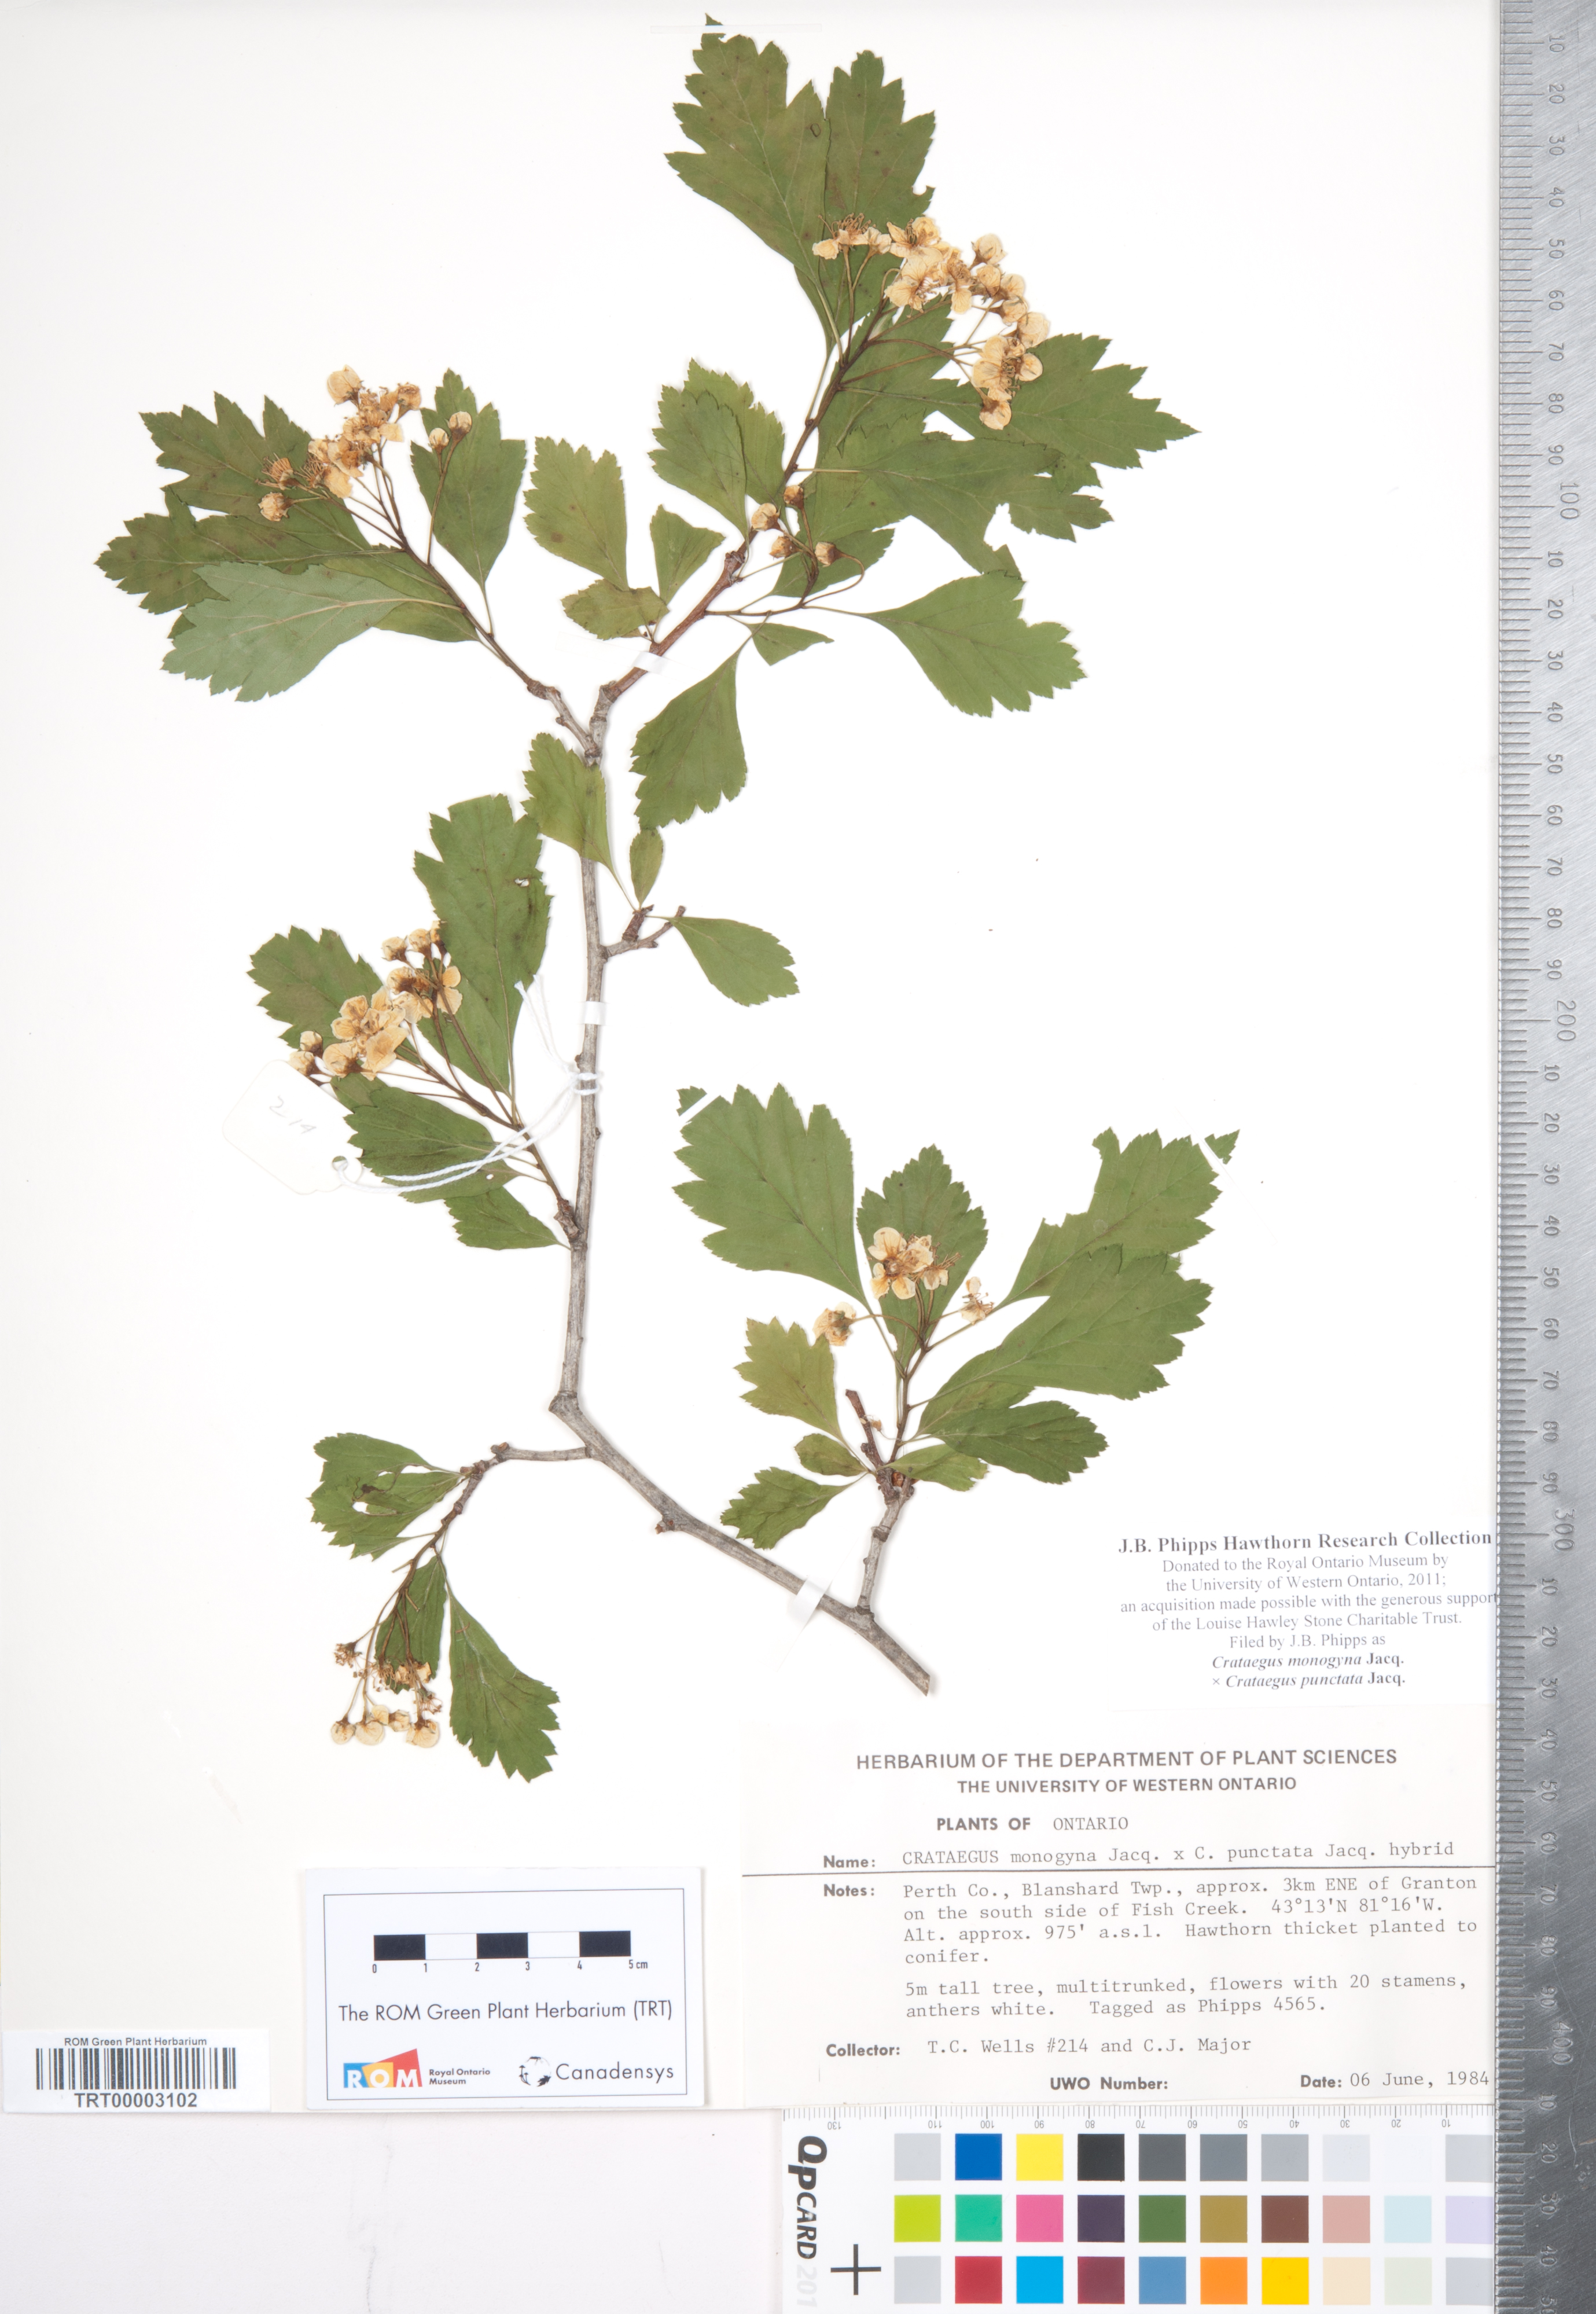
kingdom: Plantae
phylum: Tracheophyta
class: Magnoliopsida
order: Rosales
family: Rosaceae
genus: Crataegus
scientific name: Crataegus
